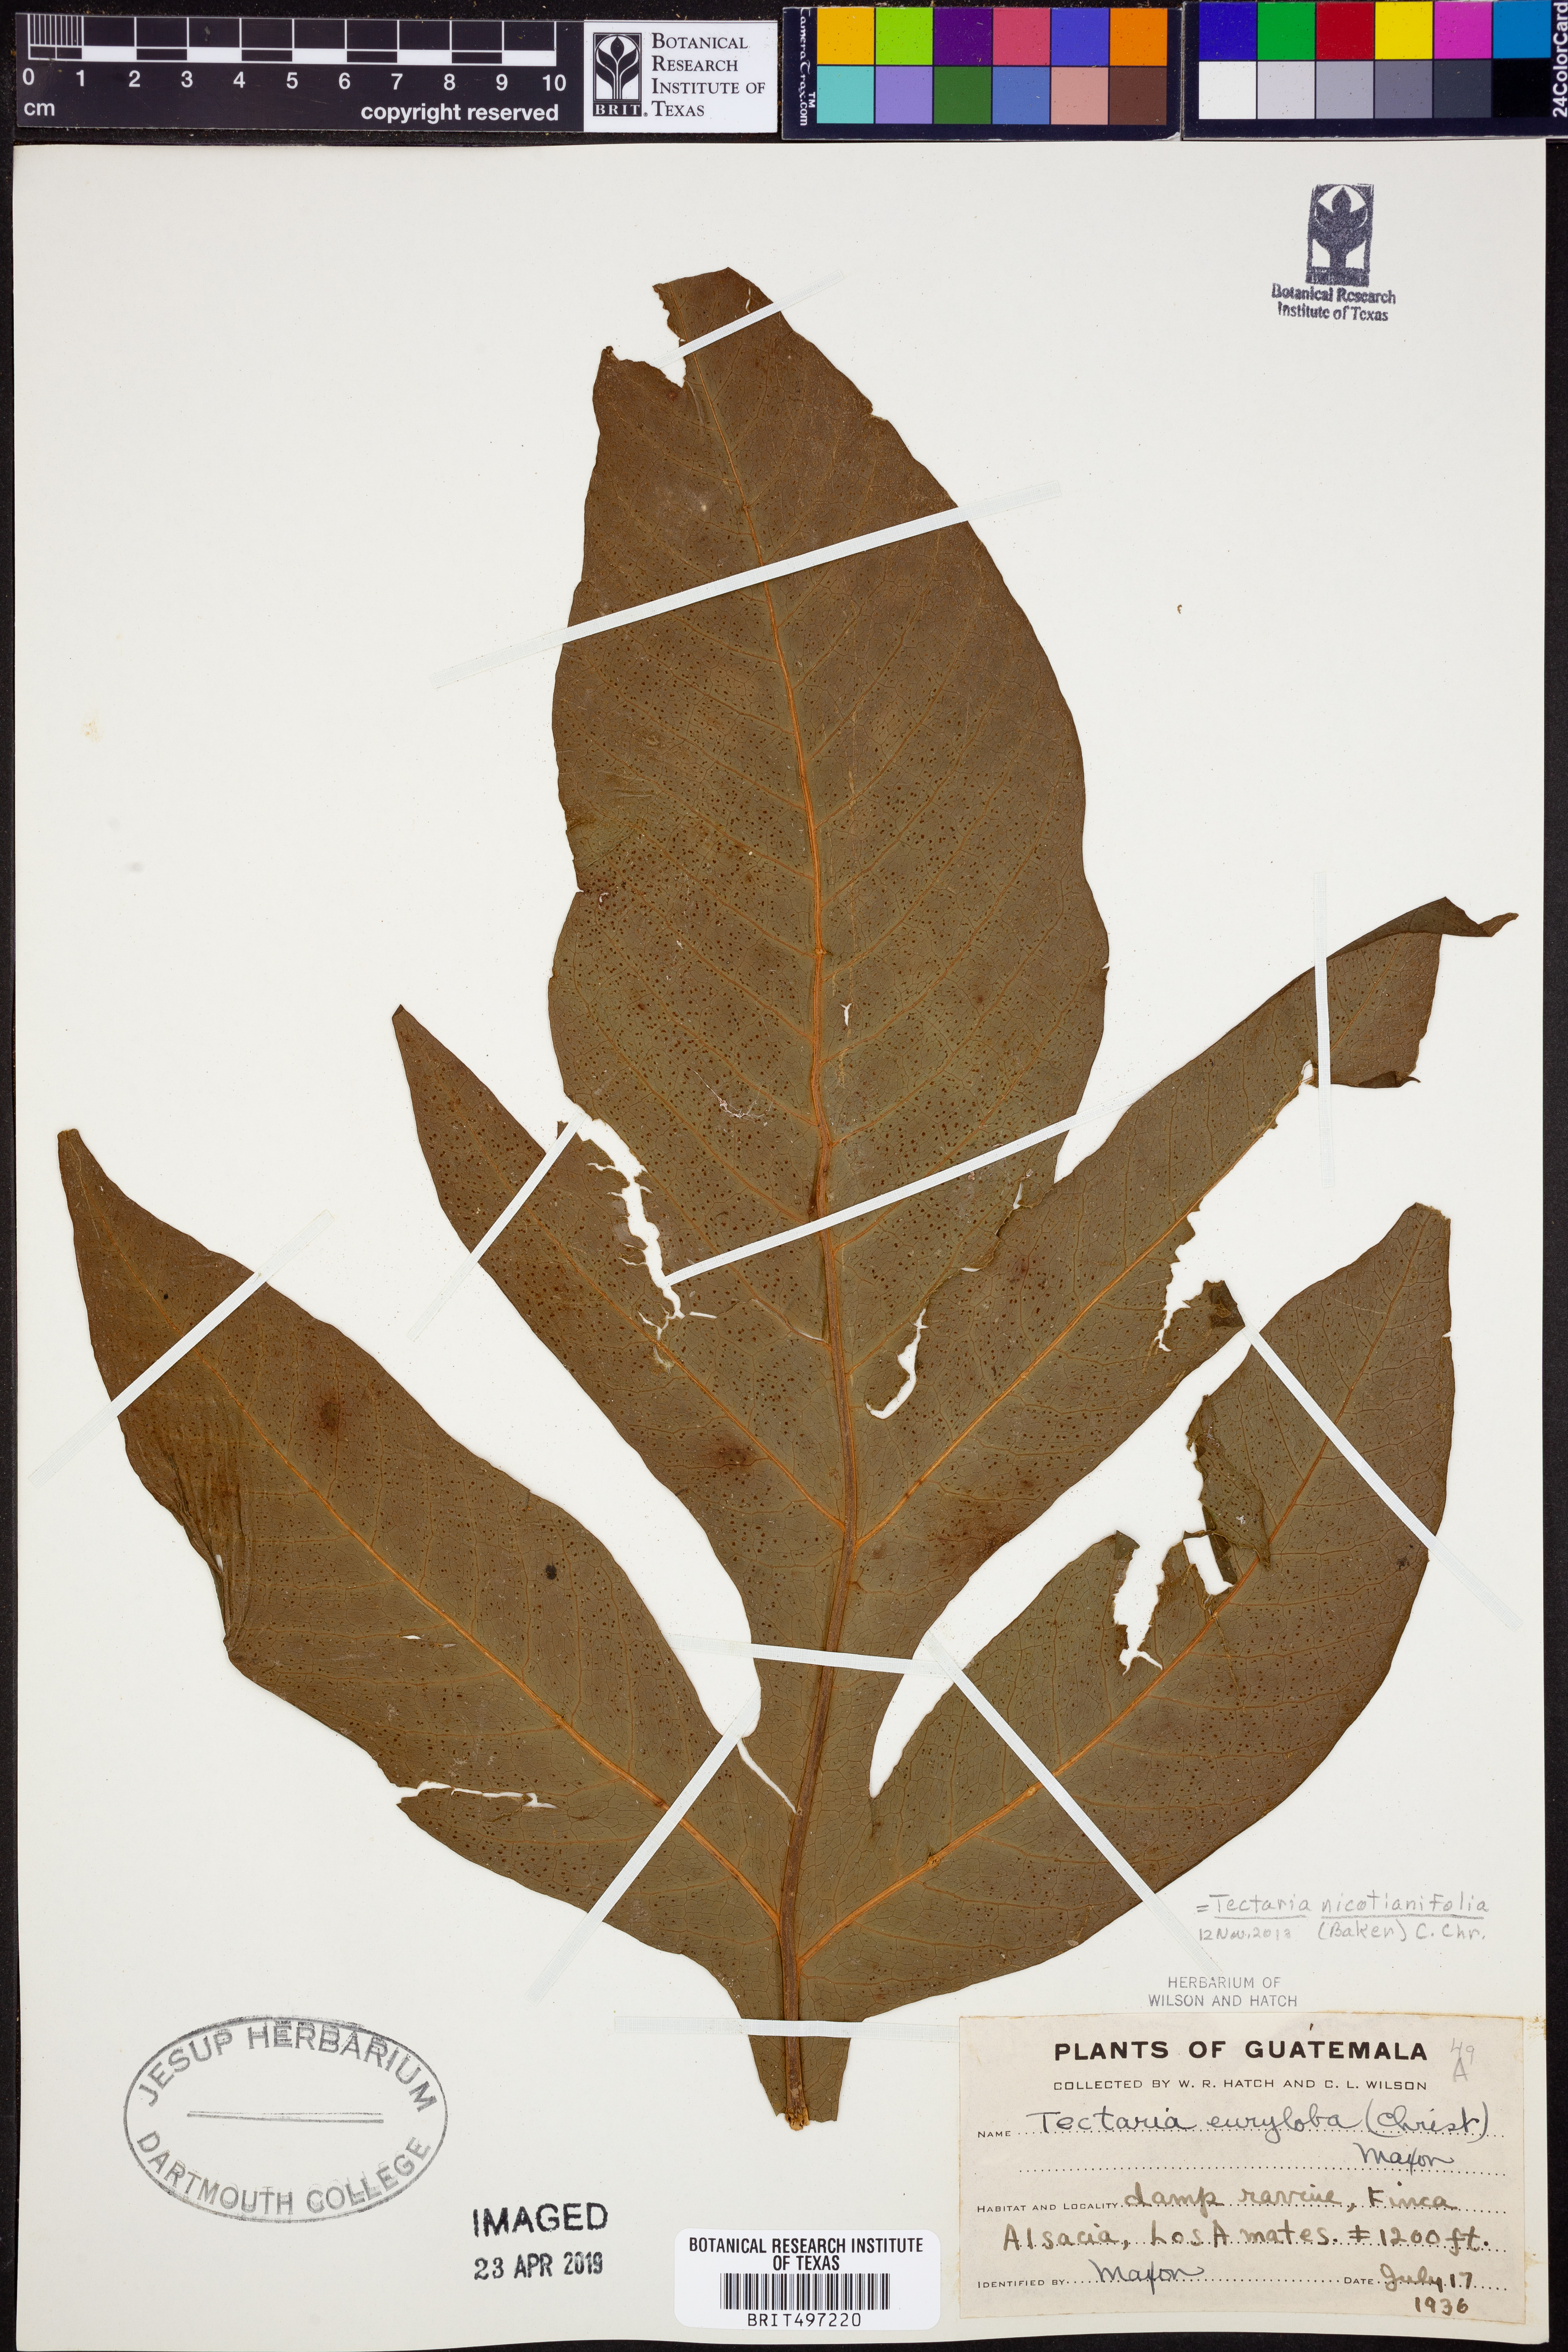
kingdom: Plantae
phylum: Tracheophyta
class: Polypodiopsida
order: Polypodiales
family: Tectariaceae
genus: Hypoderris
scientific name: Hypoderris nicotianifolia
